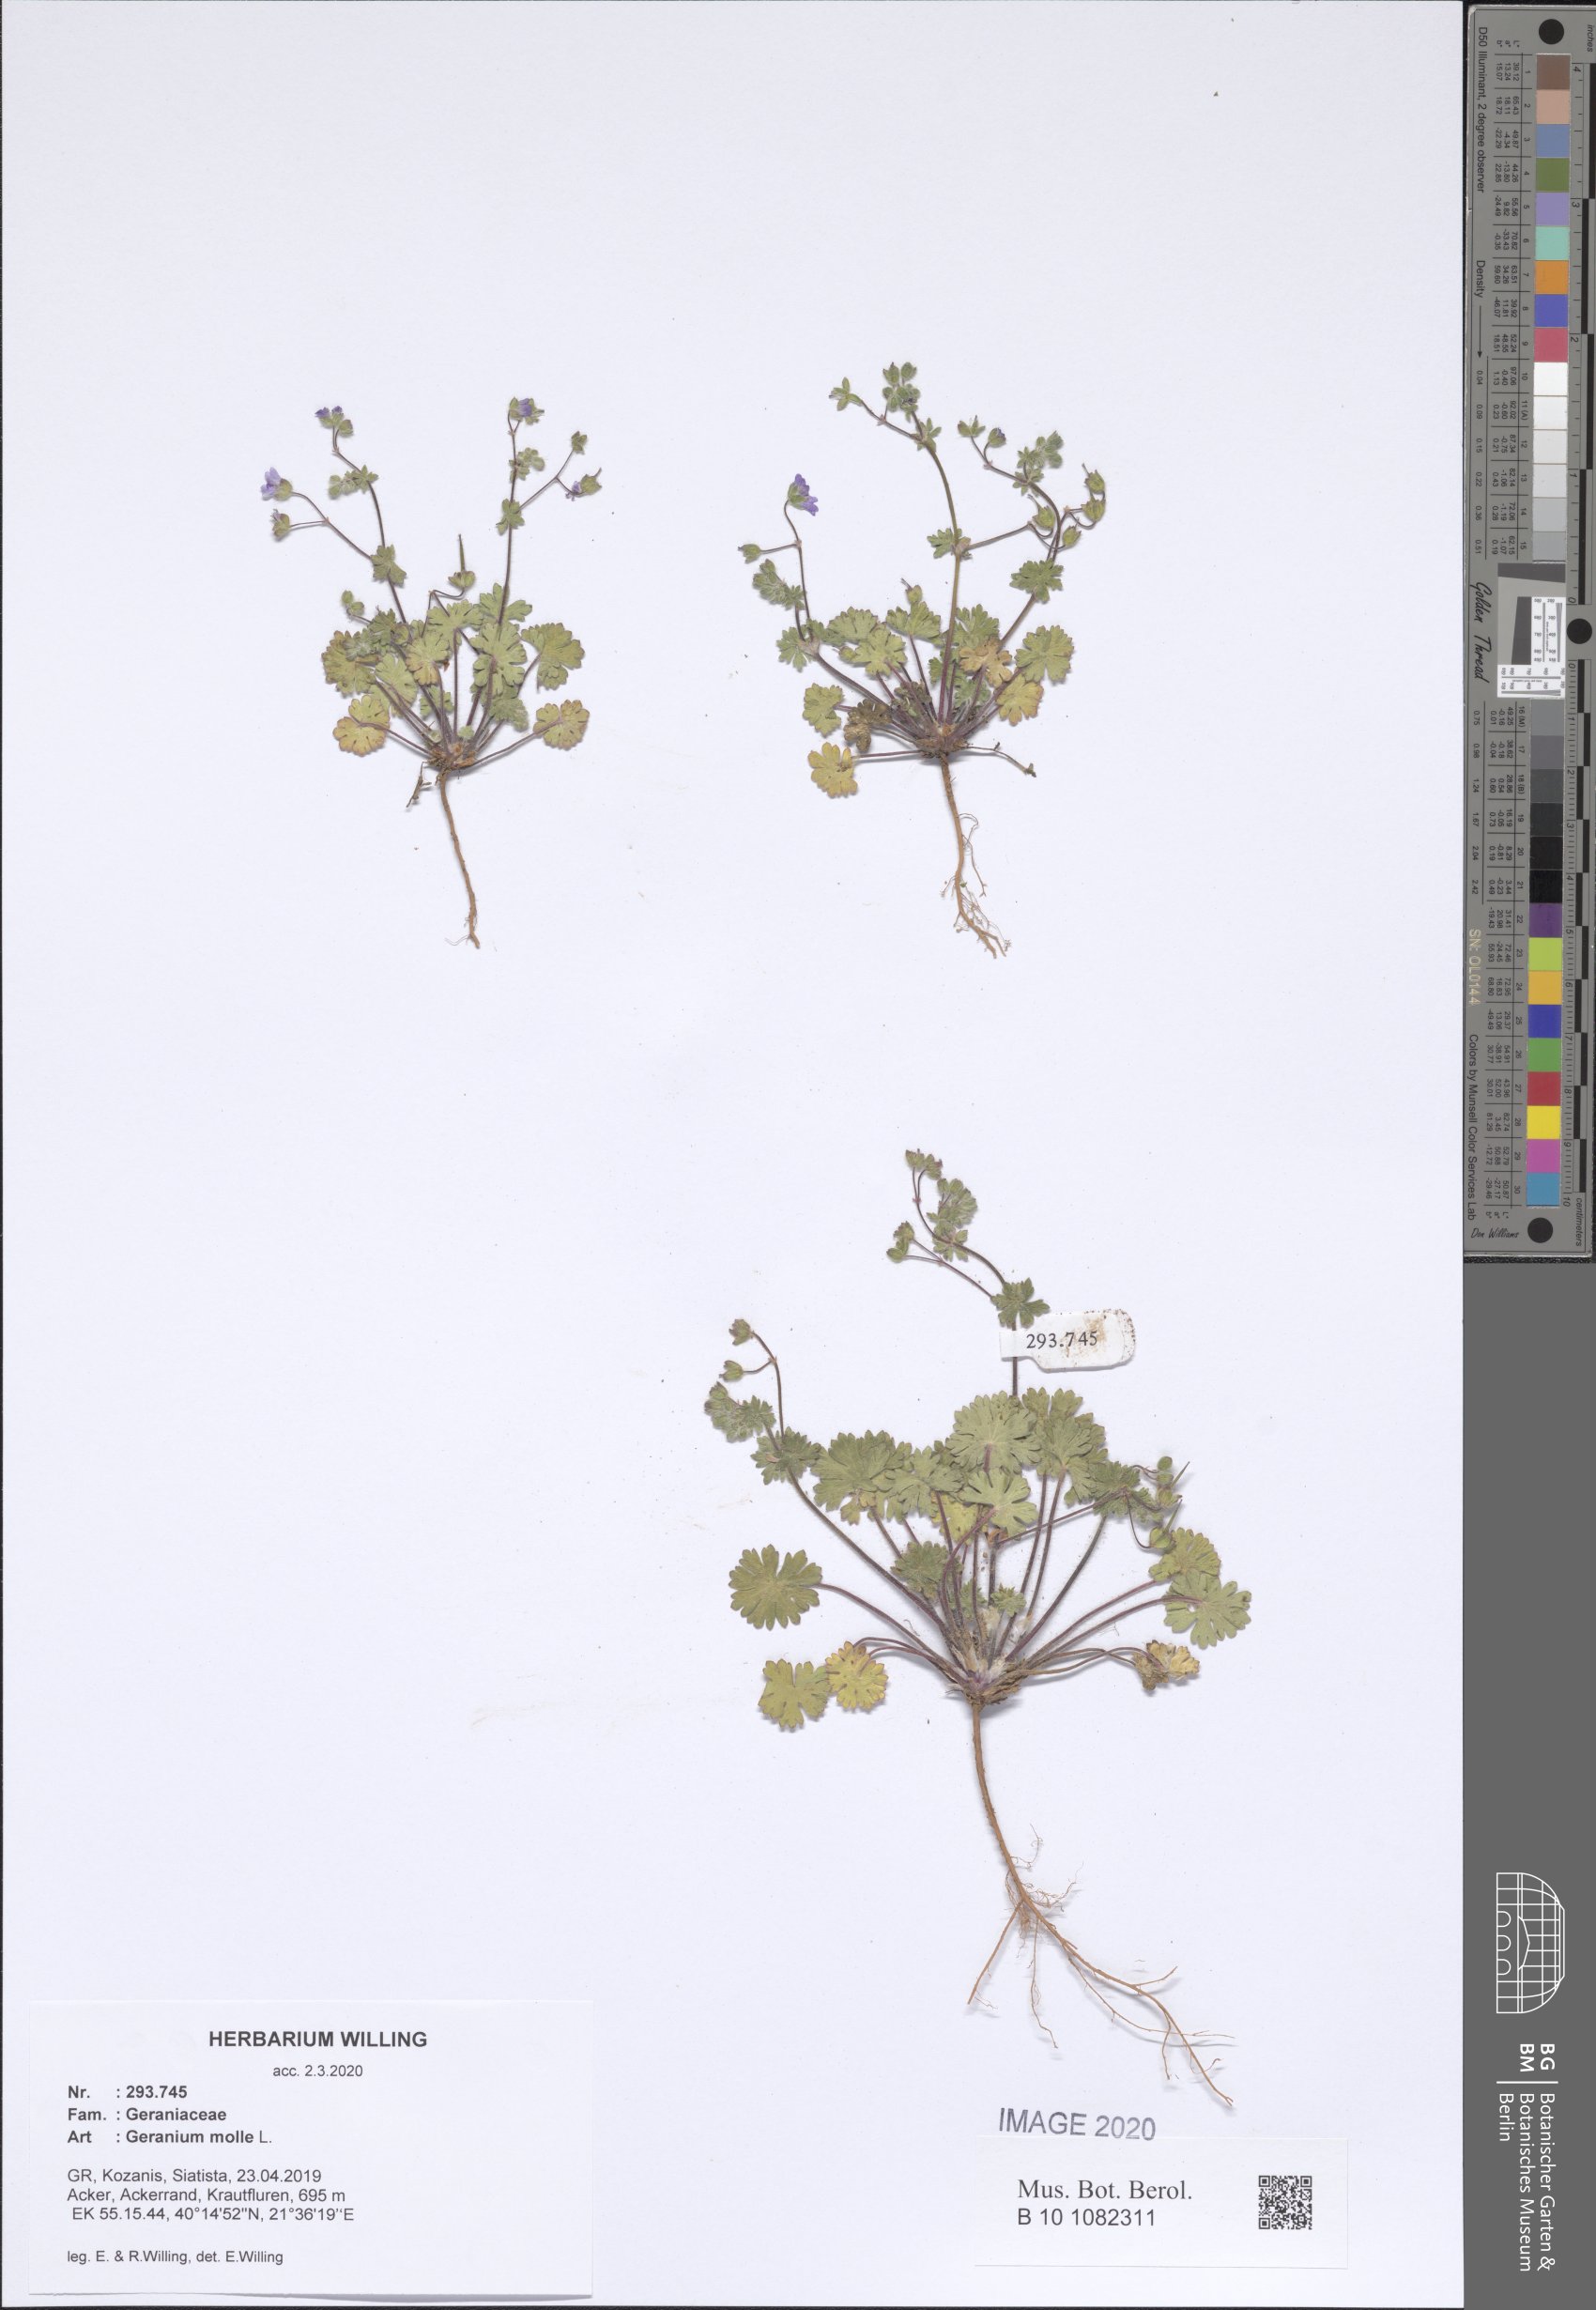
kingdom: Plantae
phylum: Tracheophyta
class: Magnoliopsida
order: Geraniales
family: Geraniaceae
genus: Geranium
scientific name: Geranium molle
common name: Dove's-foot crane's-bill
